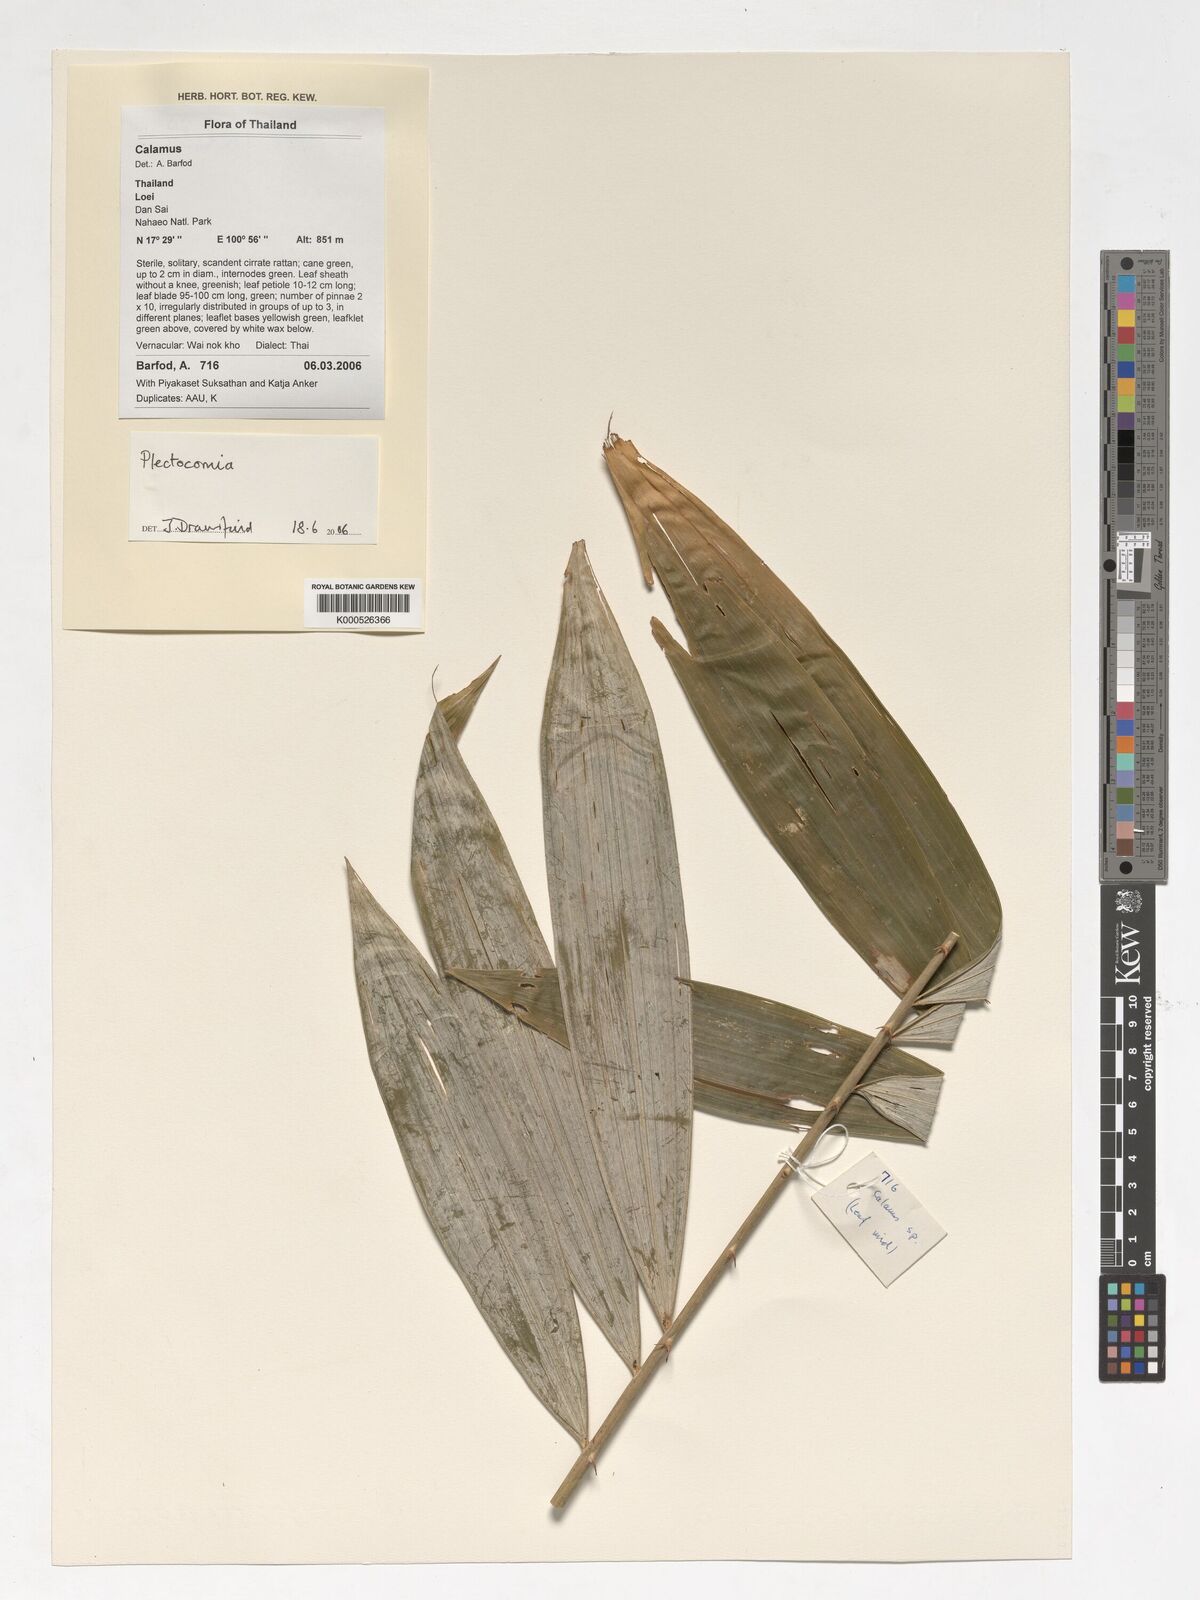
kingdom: Plantae
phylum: Tracheophyta
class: Liliopsida
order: Arecales
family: Arecaceae
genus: Plectocomia
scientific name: Plectocomia
